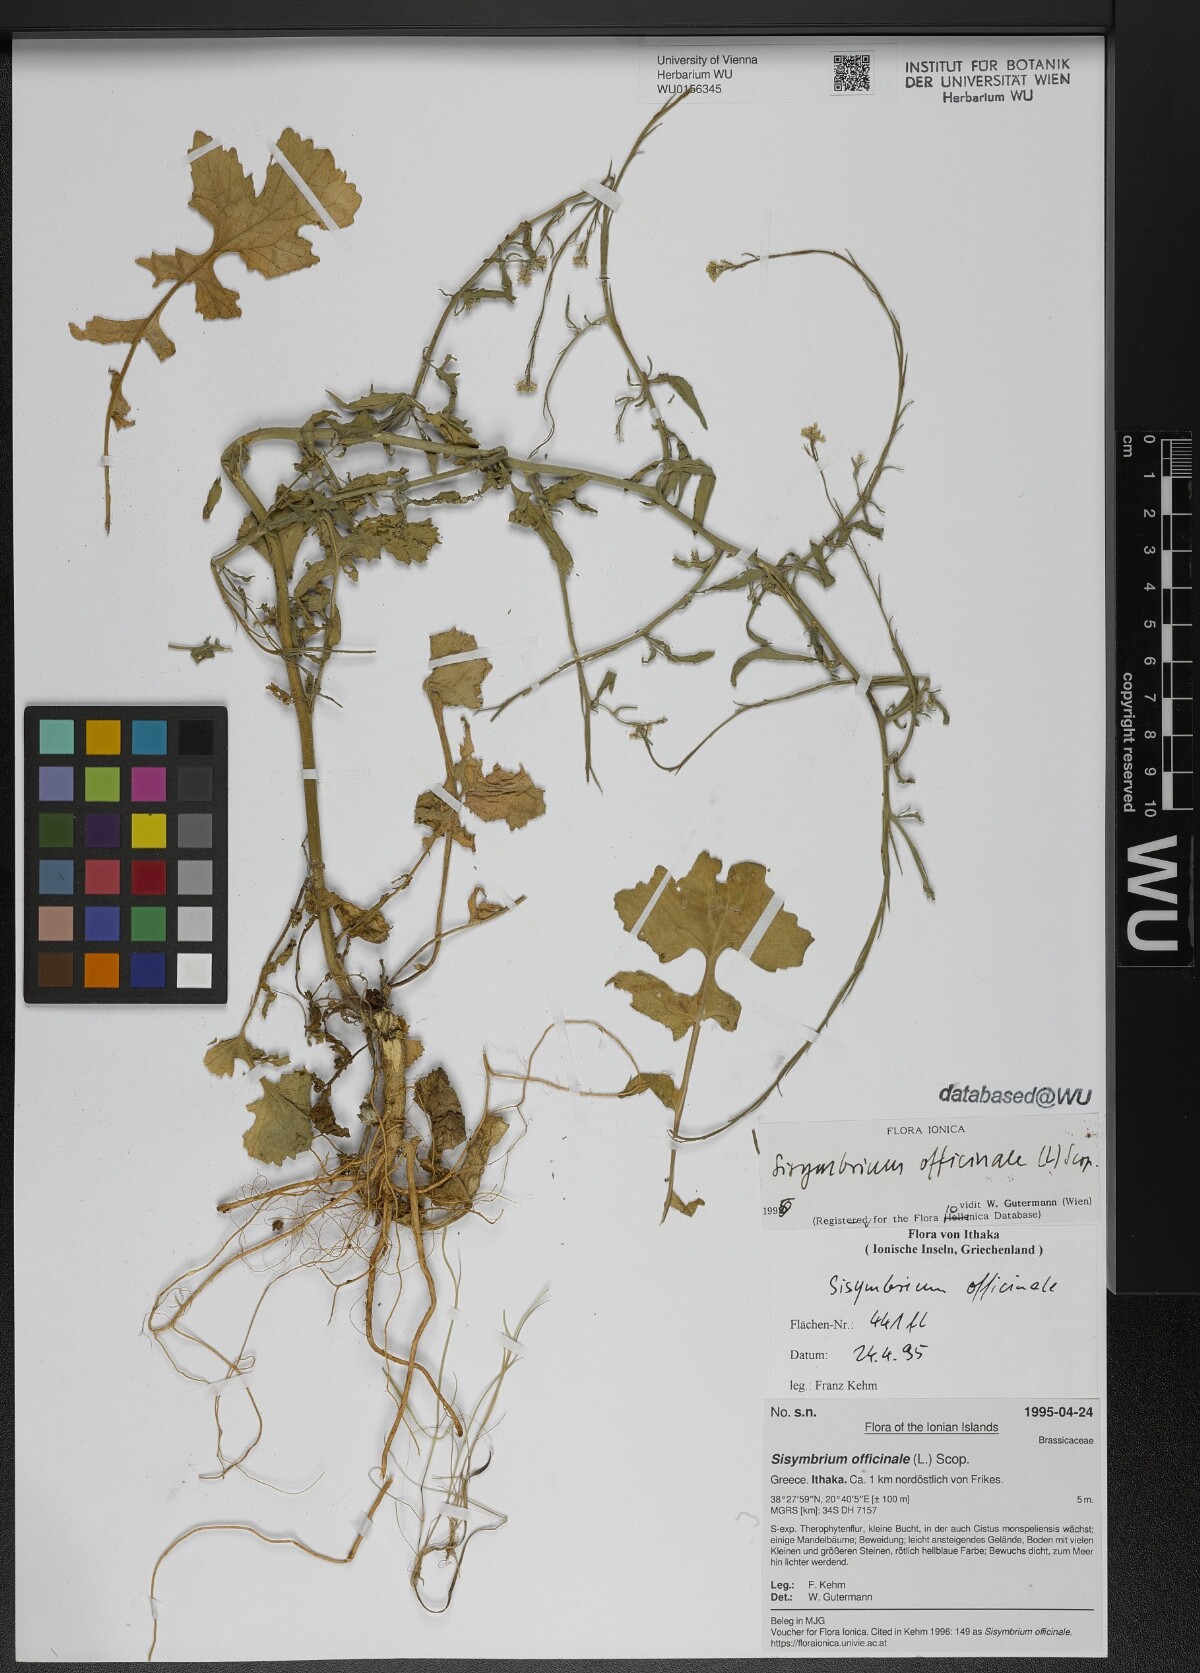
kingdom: Plantae
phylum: Tracheophyta
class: Magnoliopsida
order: Brassicales
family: Brassicaceae
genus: Sisymbrium
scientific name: Sisymbrium officinale
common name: Hedge mustard
